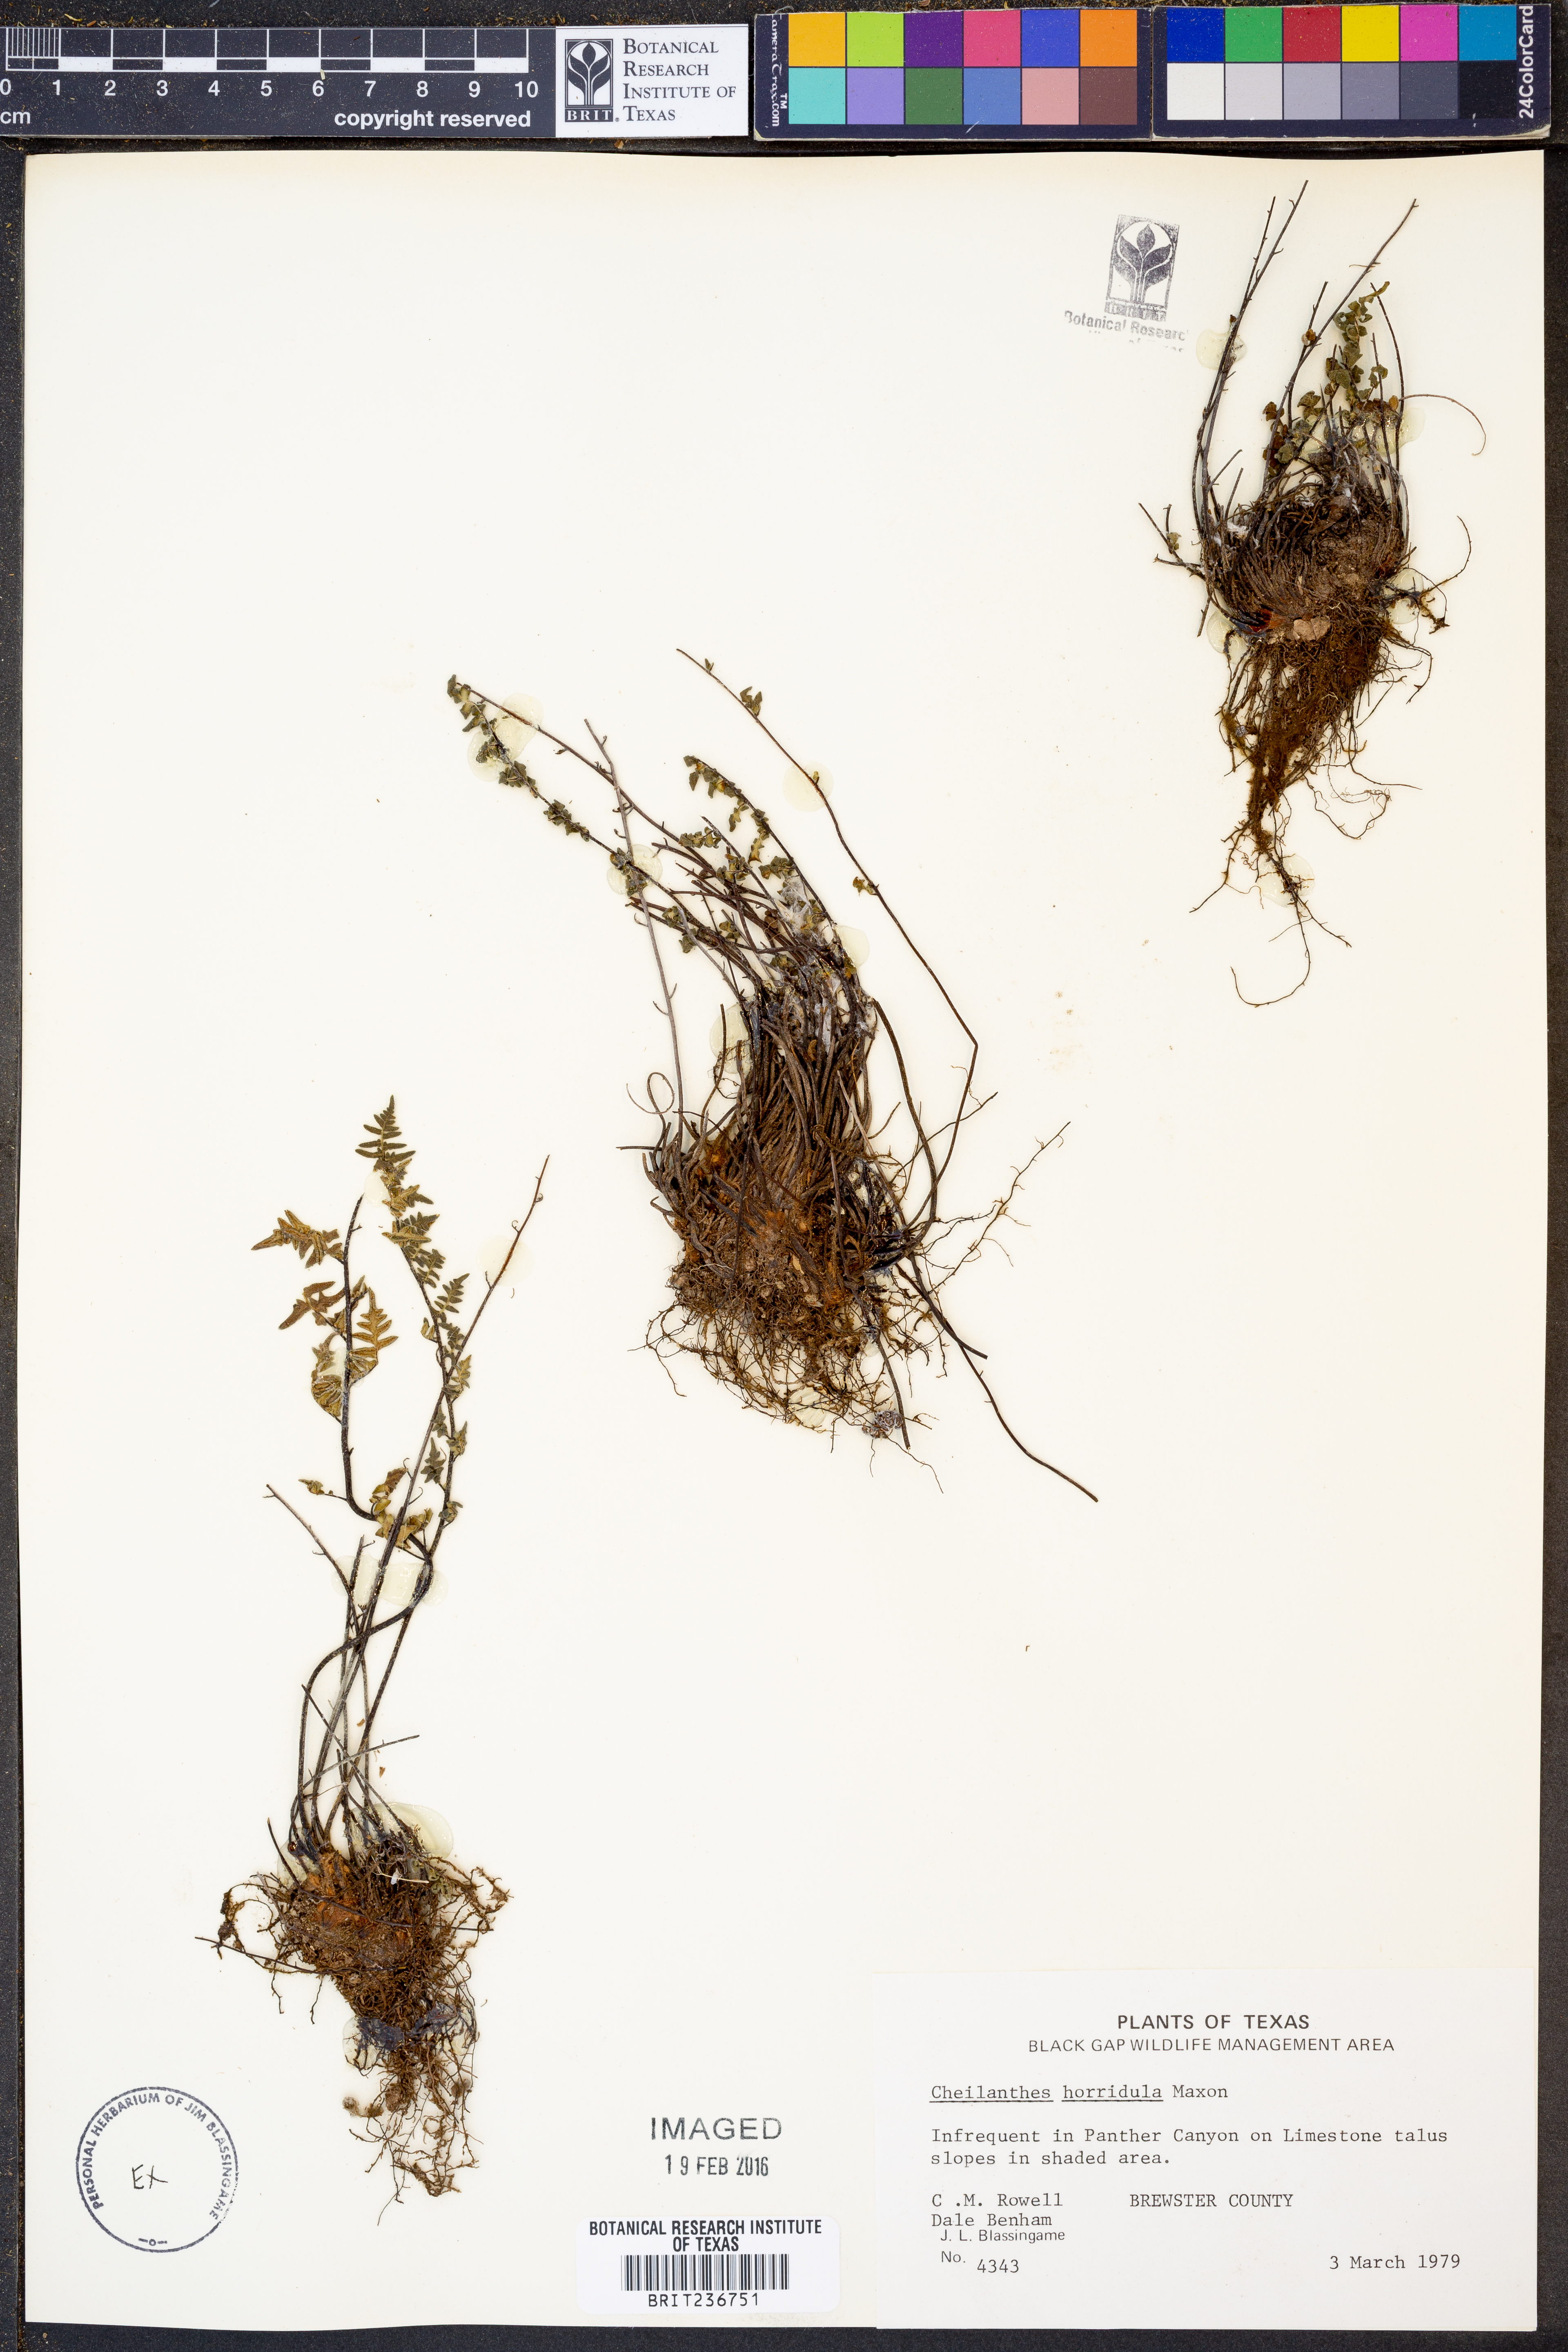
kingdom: Plantae
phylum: Tracheophyta
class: Polypodiopsida
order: Polypodiales
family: Pteridaceae
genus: Myriopteris
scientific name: Myriopteris scabra
